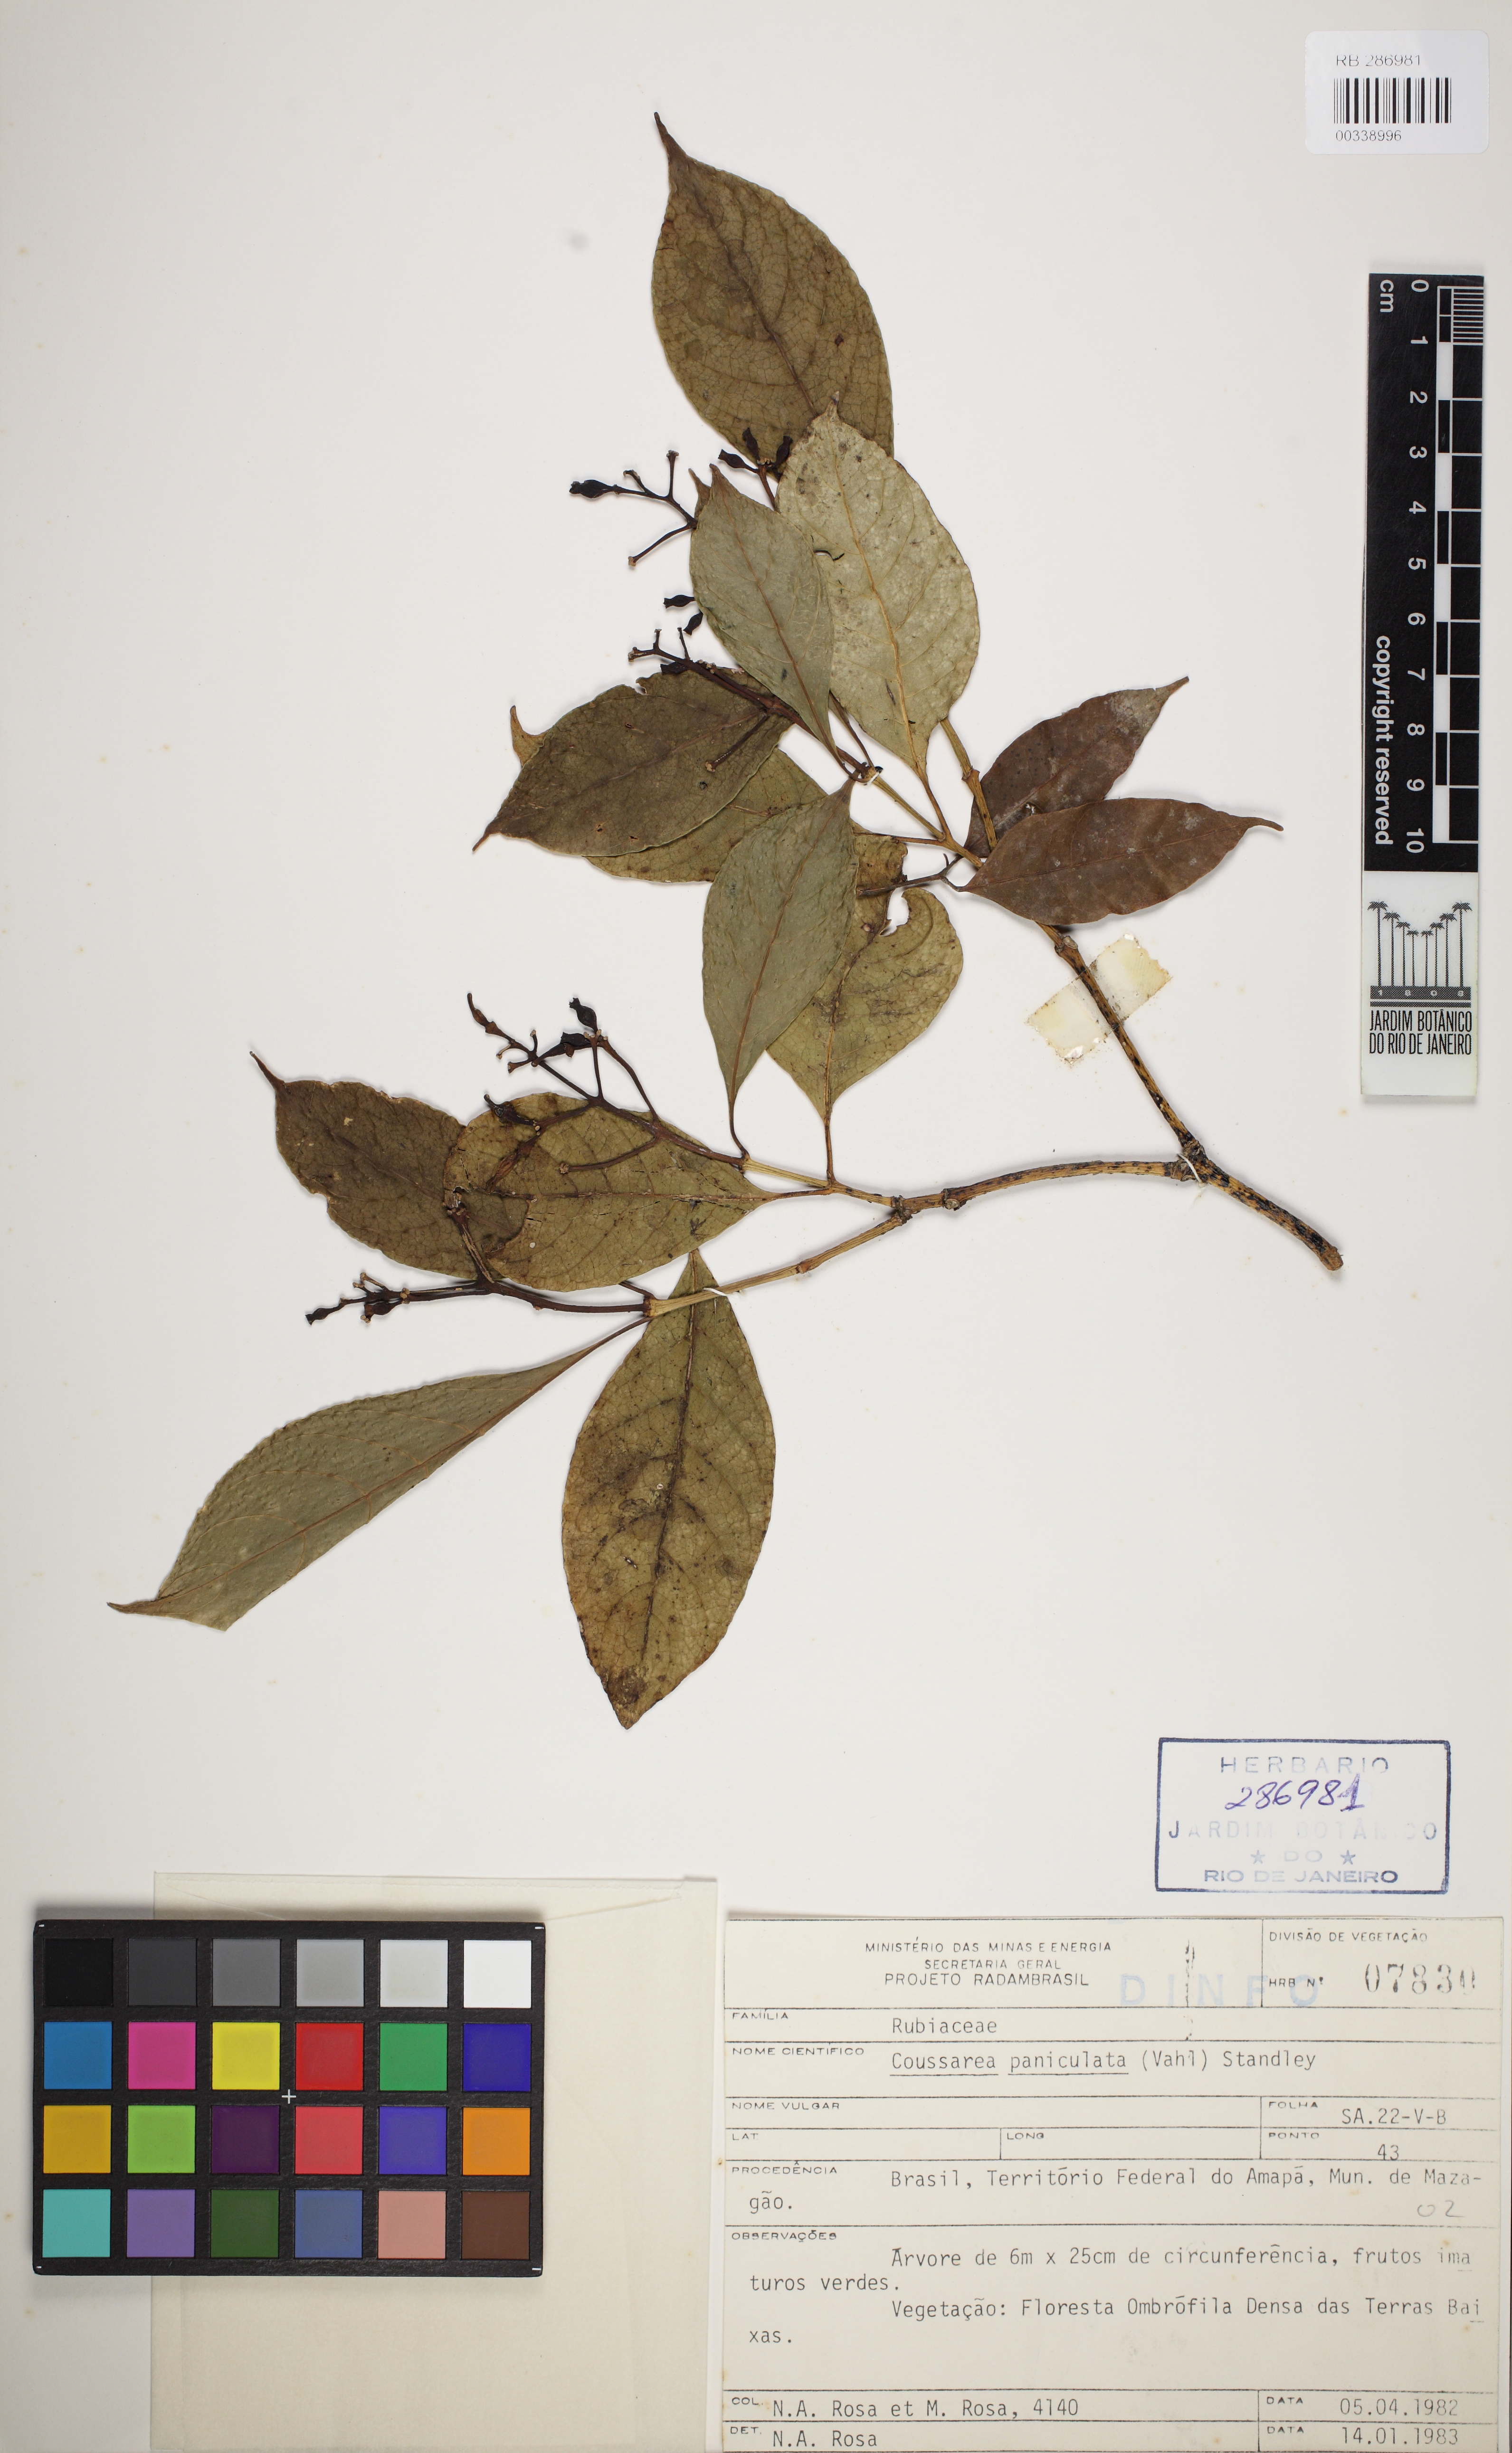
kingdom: Plantae
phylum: Tracheophyta
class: Magnoliopsida
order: Gentianales
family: Rubiaceae
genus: Coussarea
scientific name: Coussarea paniculata
